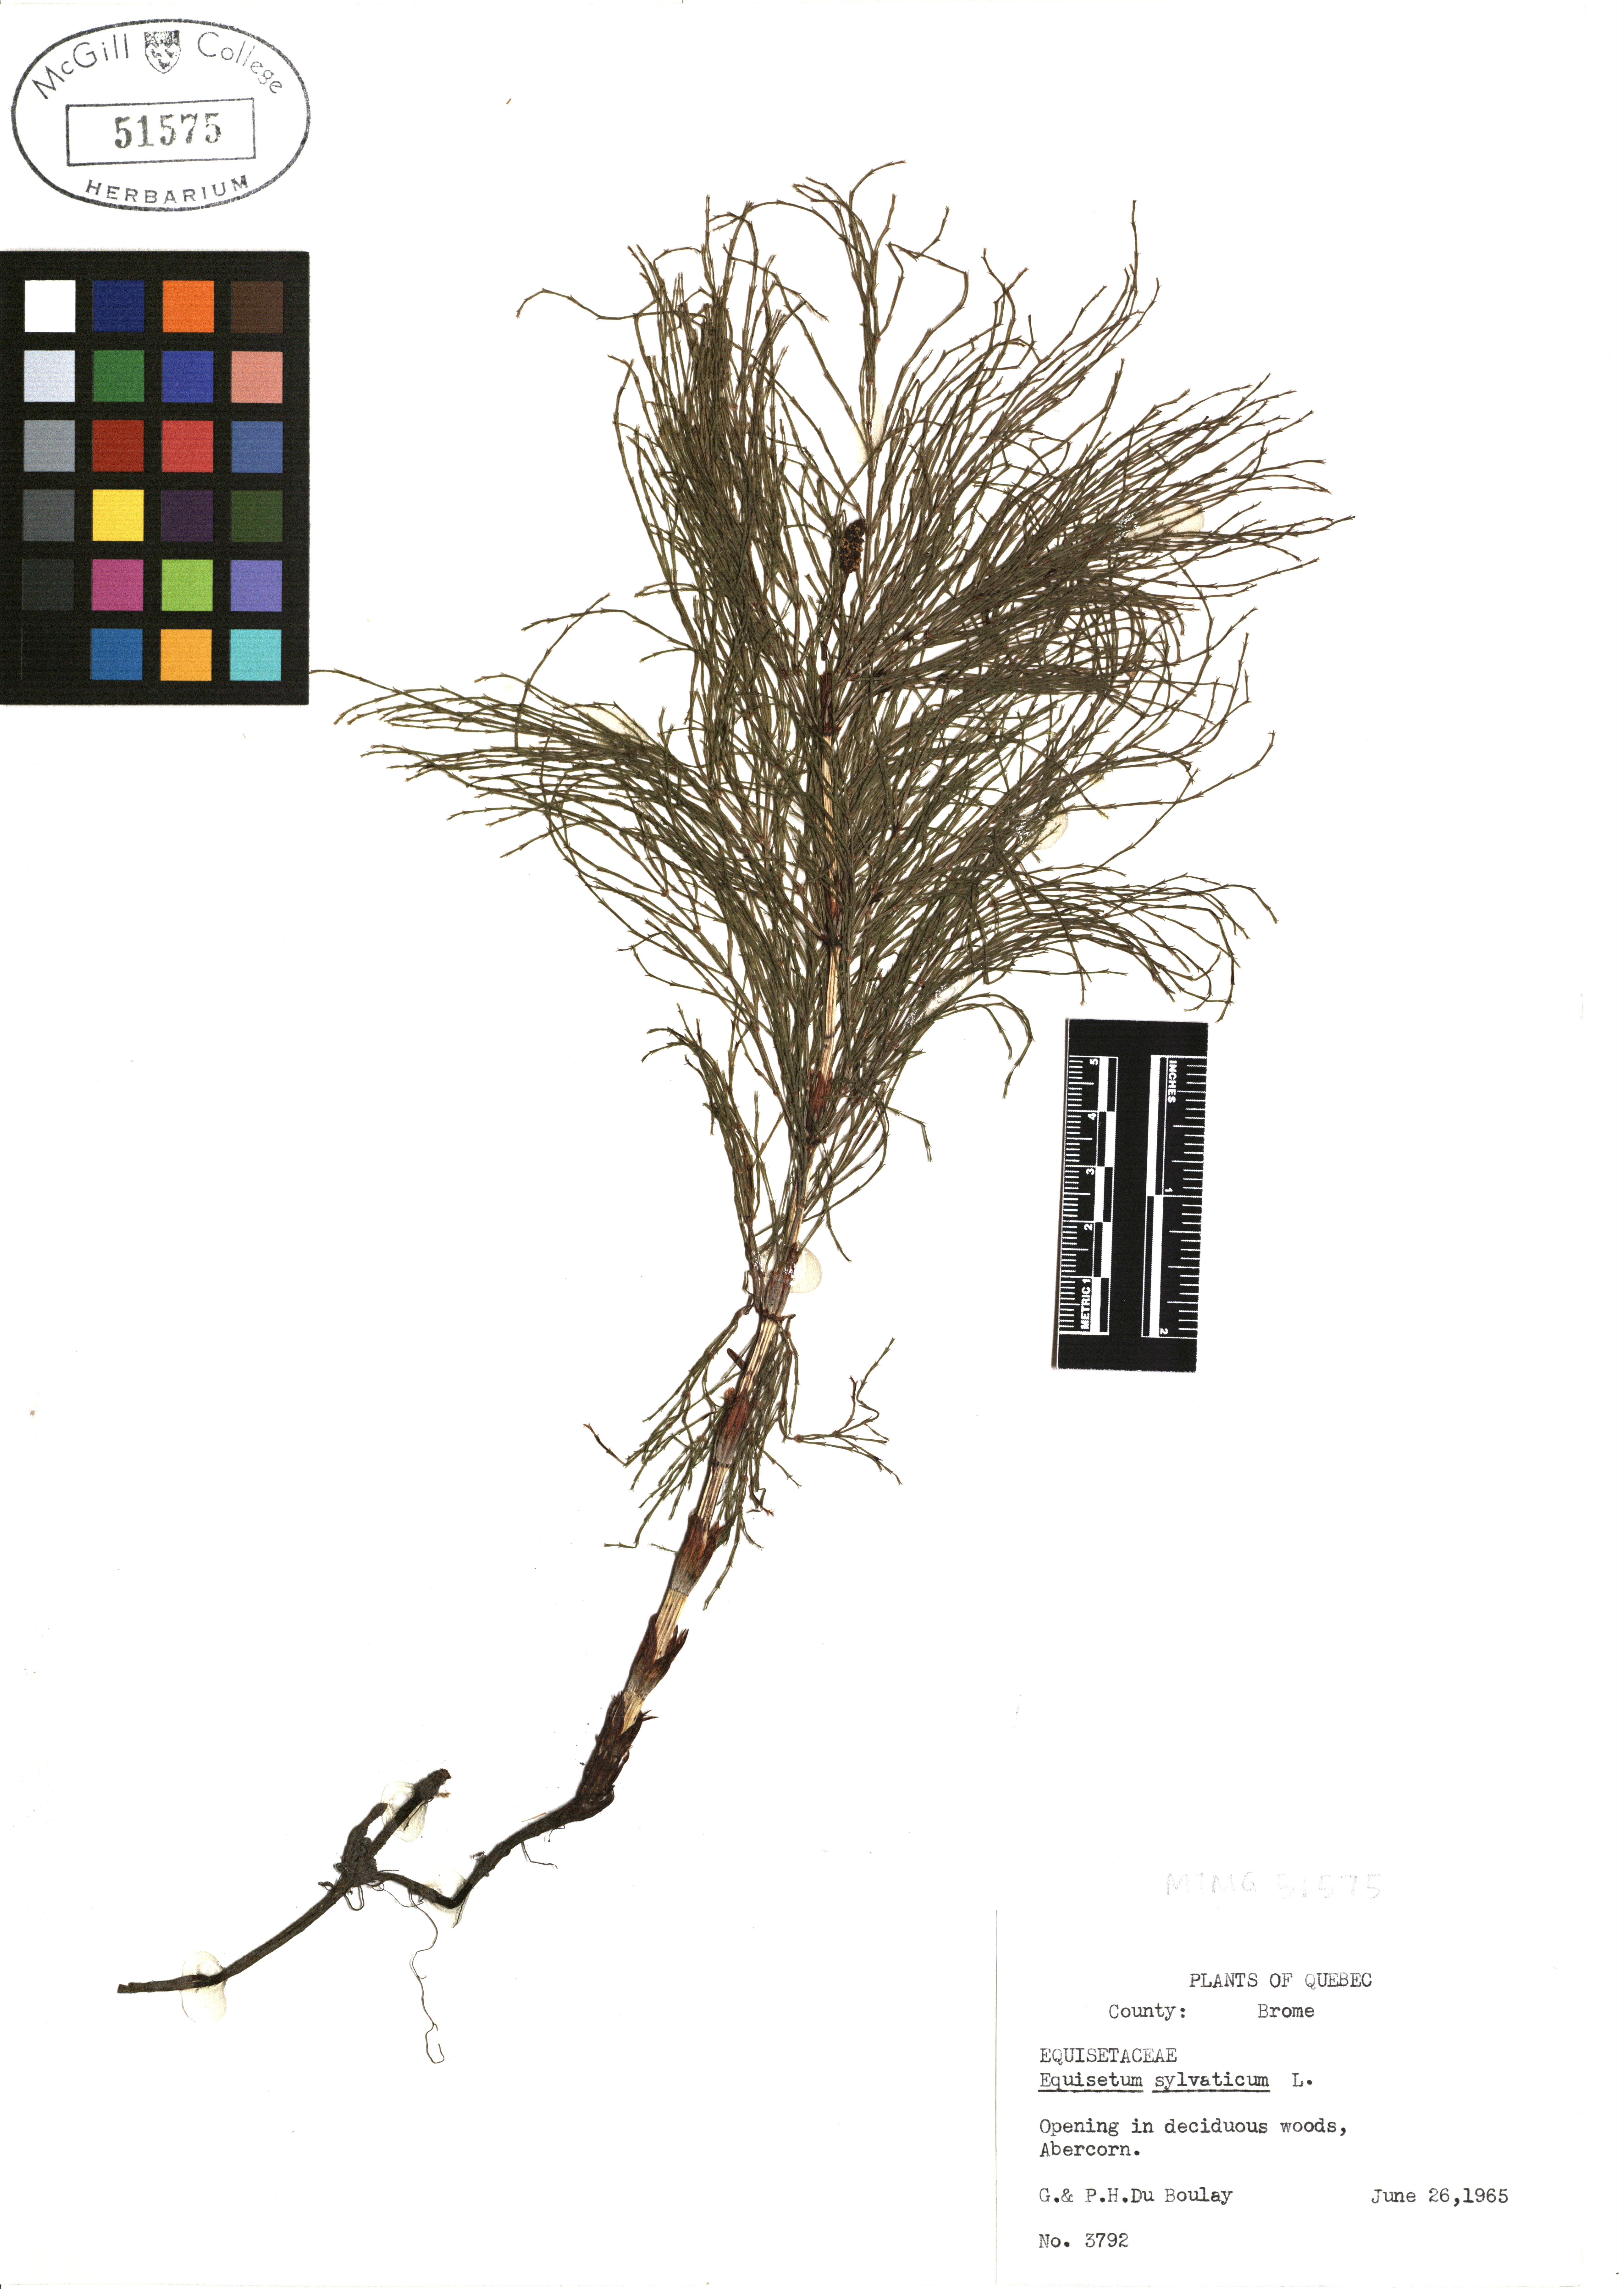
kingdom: Plantae
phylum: Tracheophyta
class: Polypodiopsida
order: Equisetales
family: Equisetaceae
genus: Equisetum
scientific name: Equisetum sylvaticum
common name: Wood horsetail
